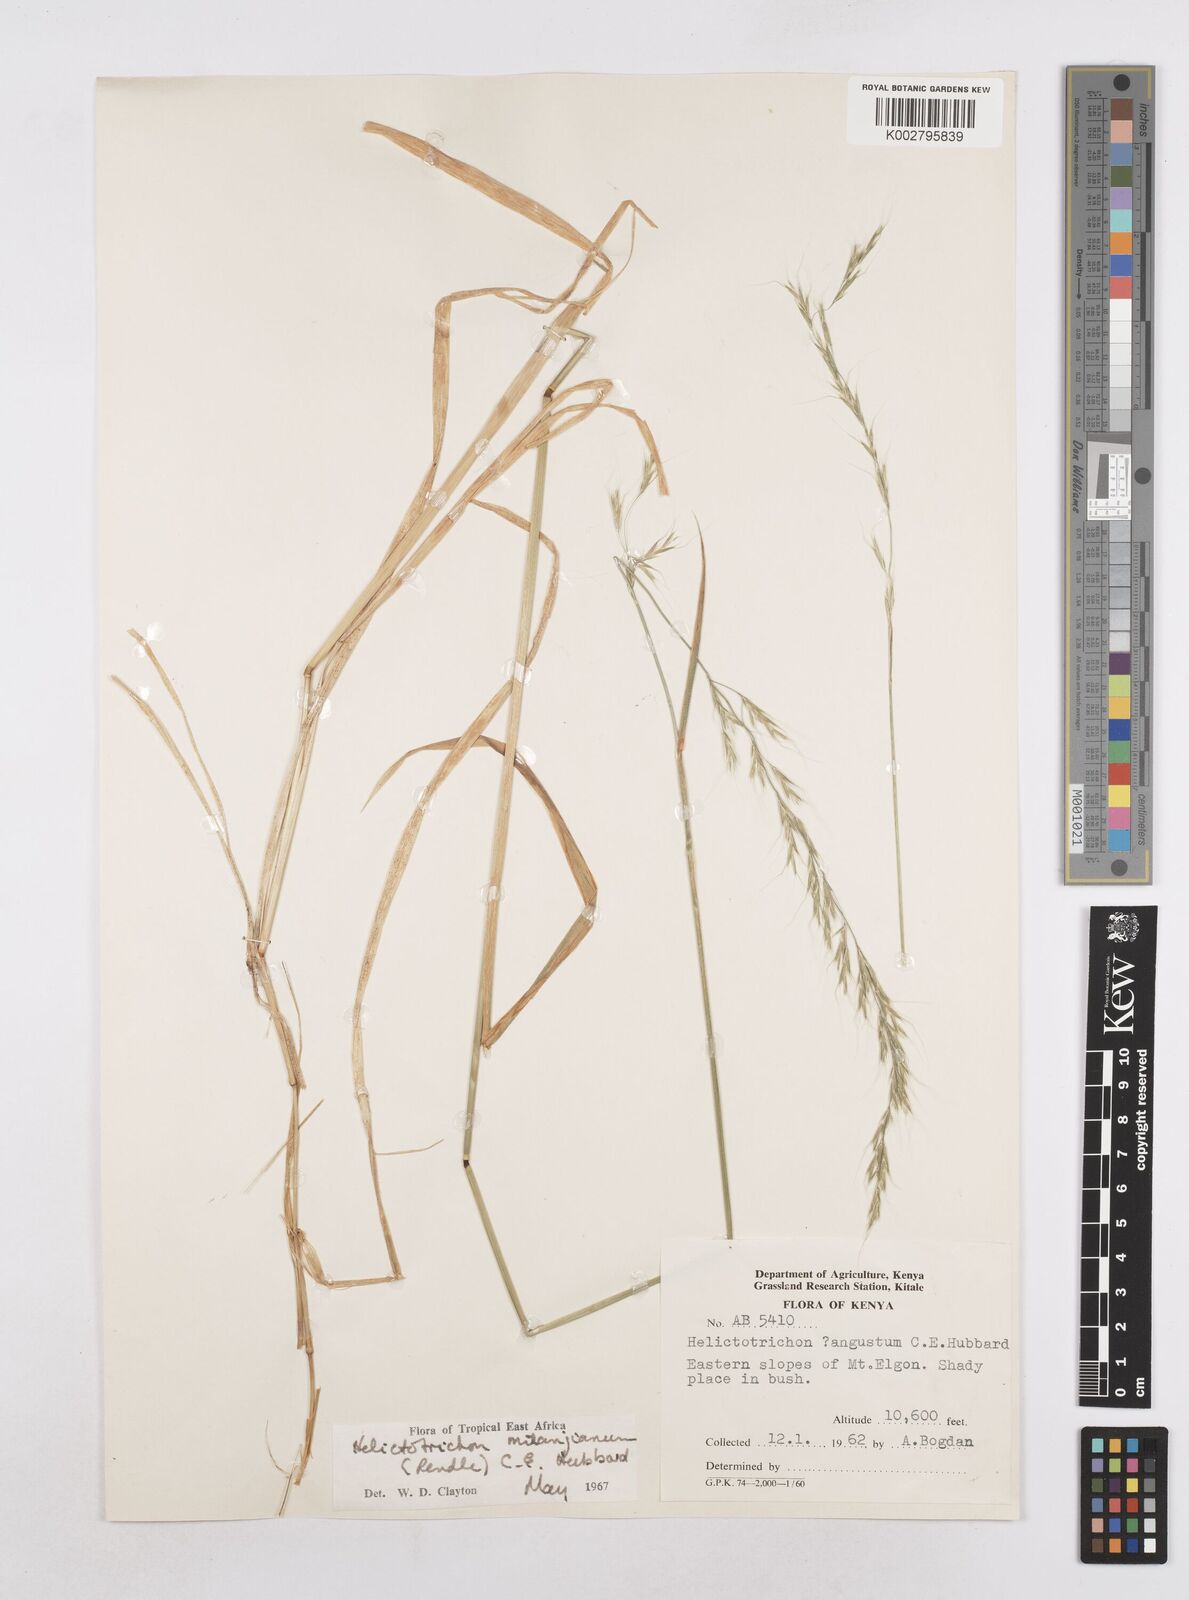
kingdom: Plantae
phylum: Tracheophyta
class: Liliopsida
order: Poales
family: Poaceae
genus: Trisetopsis
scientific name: Trisetopsis milanjiana
